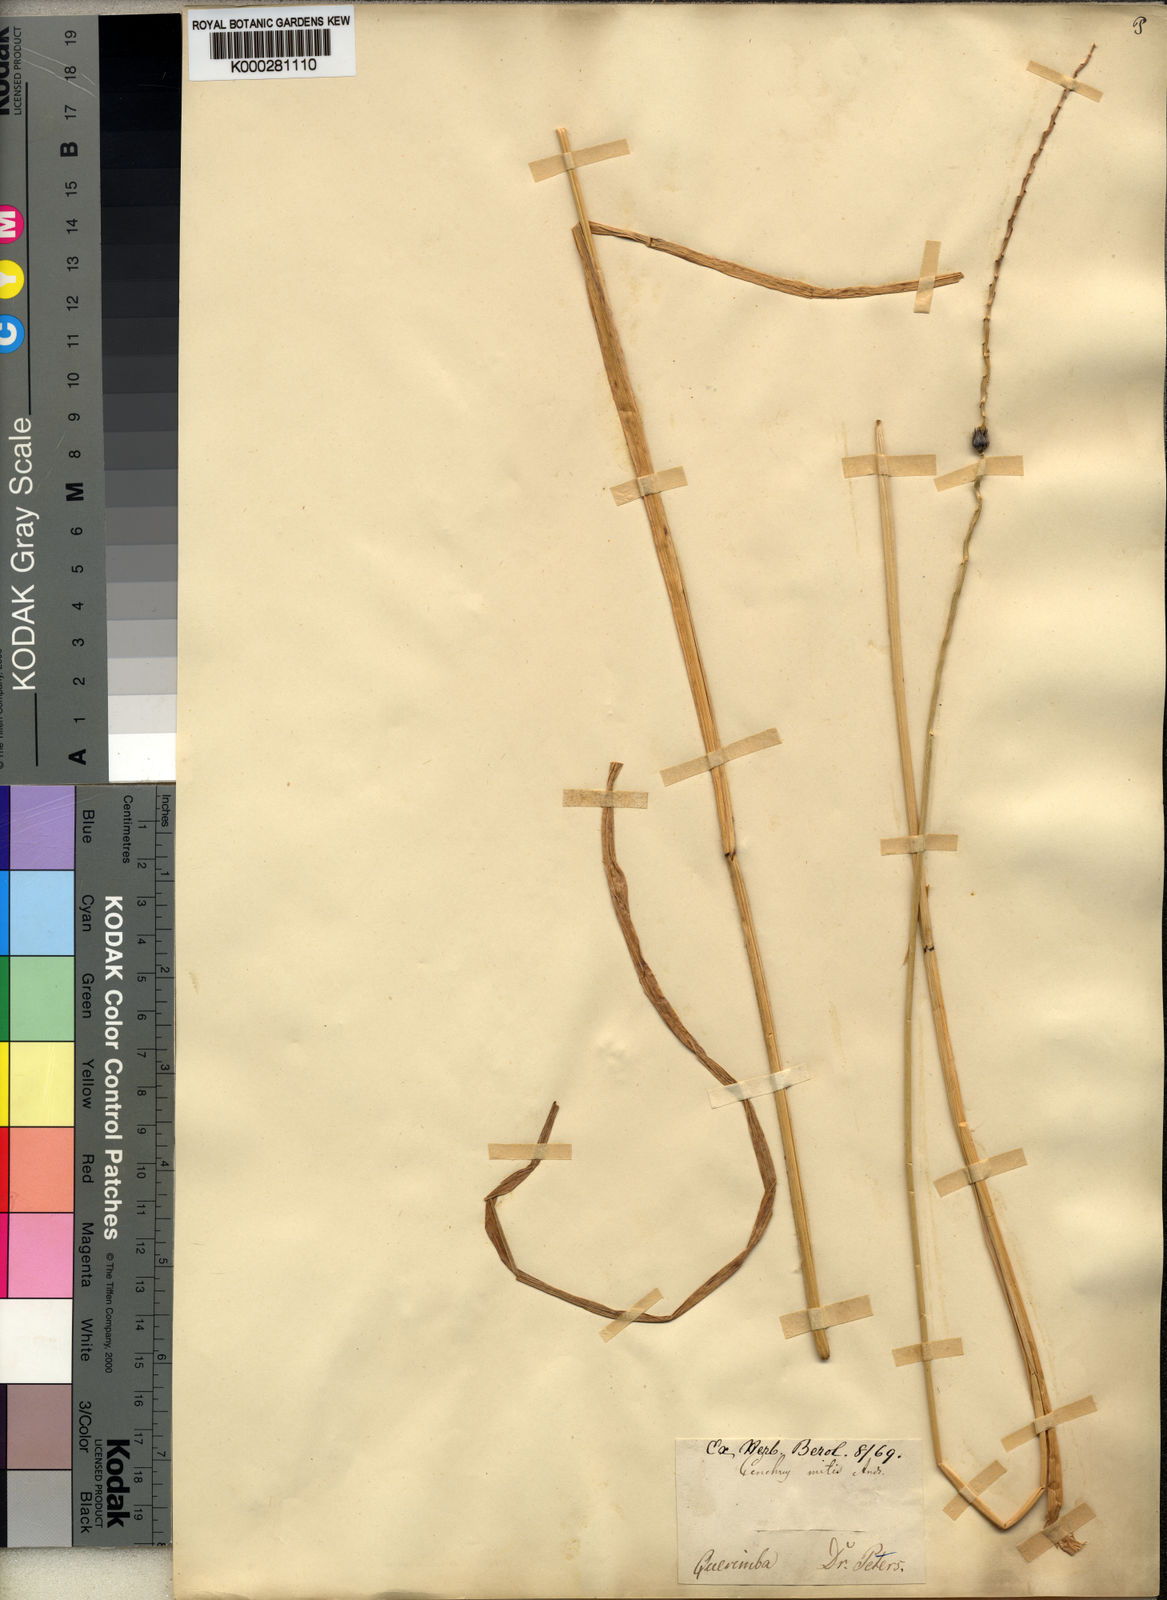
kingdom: Plantae
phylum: Tracheophyta
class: Liliopsida
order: Poales
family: Poaceae
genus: Cenchrus
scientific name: Cenchrus mitis
